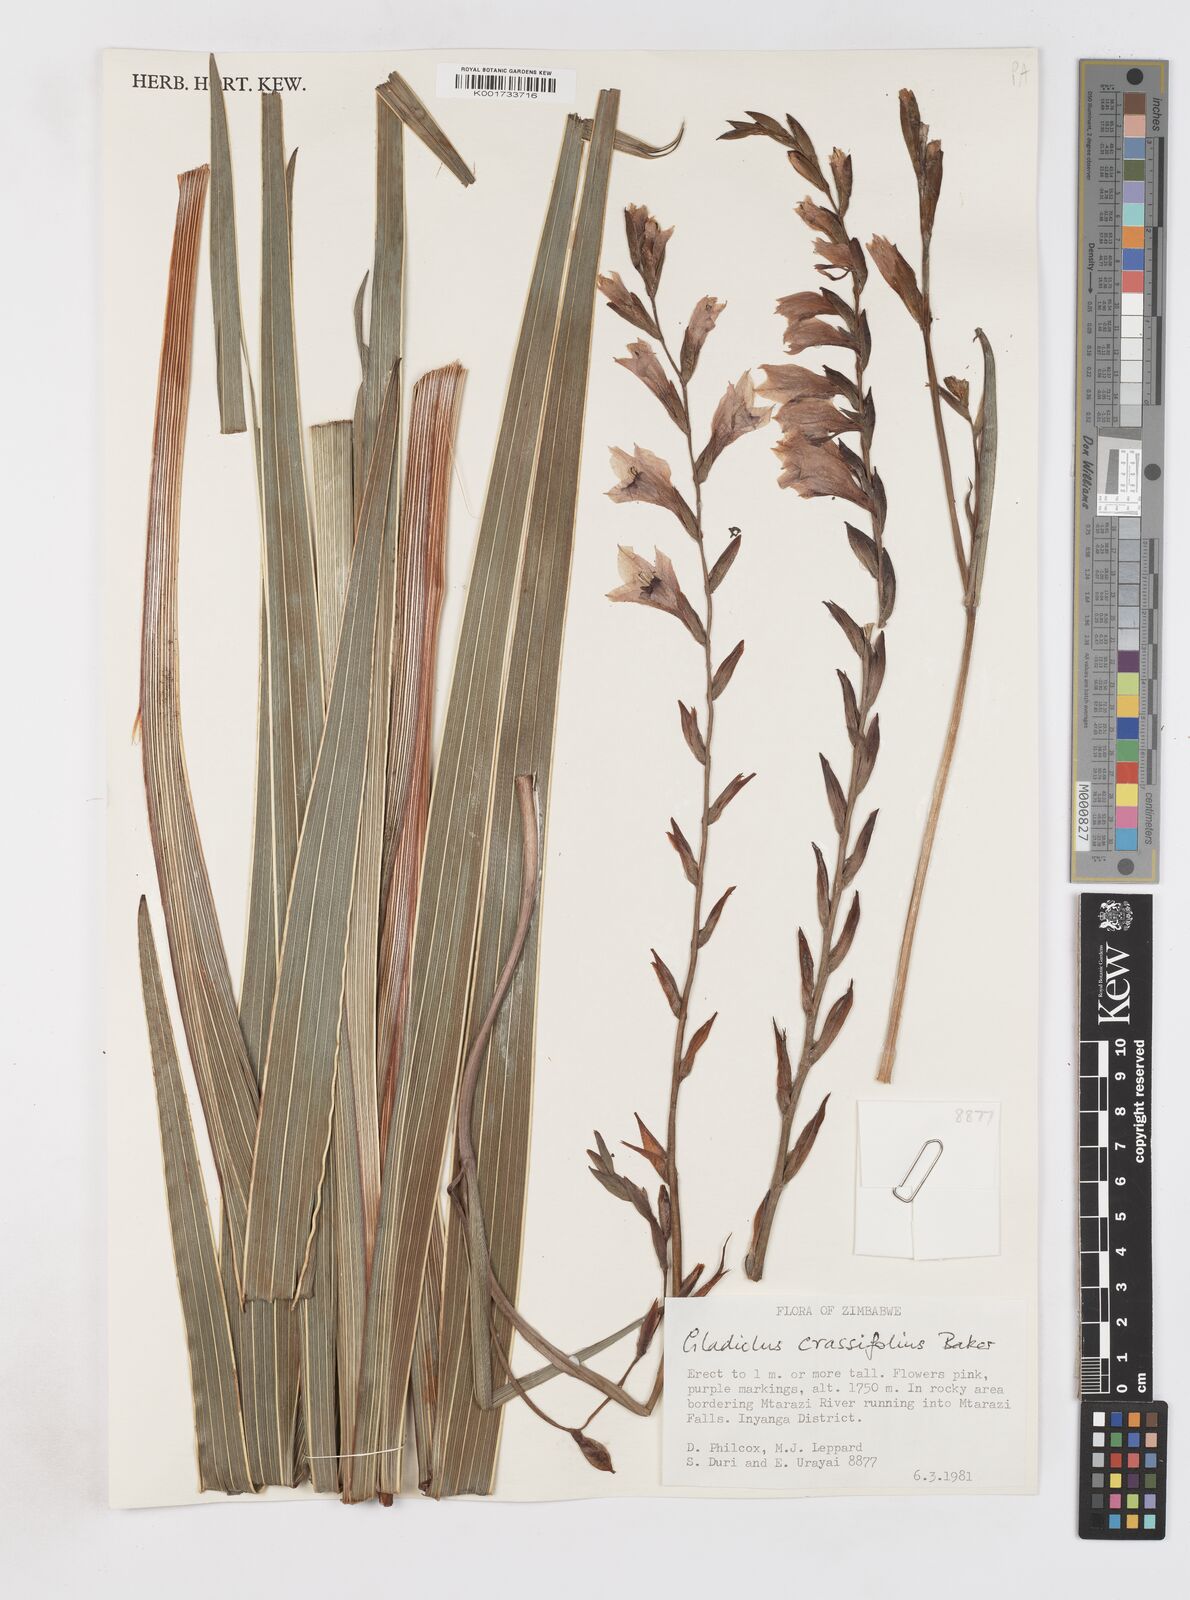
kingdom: Plantae
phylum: Tracheophyta
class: Liliopsida
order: Asparagales
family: Iridaceae
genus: Gladiolus
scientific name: Gladiolus crassifolius
